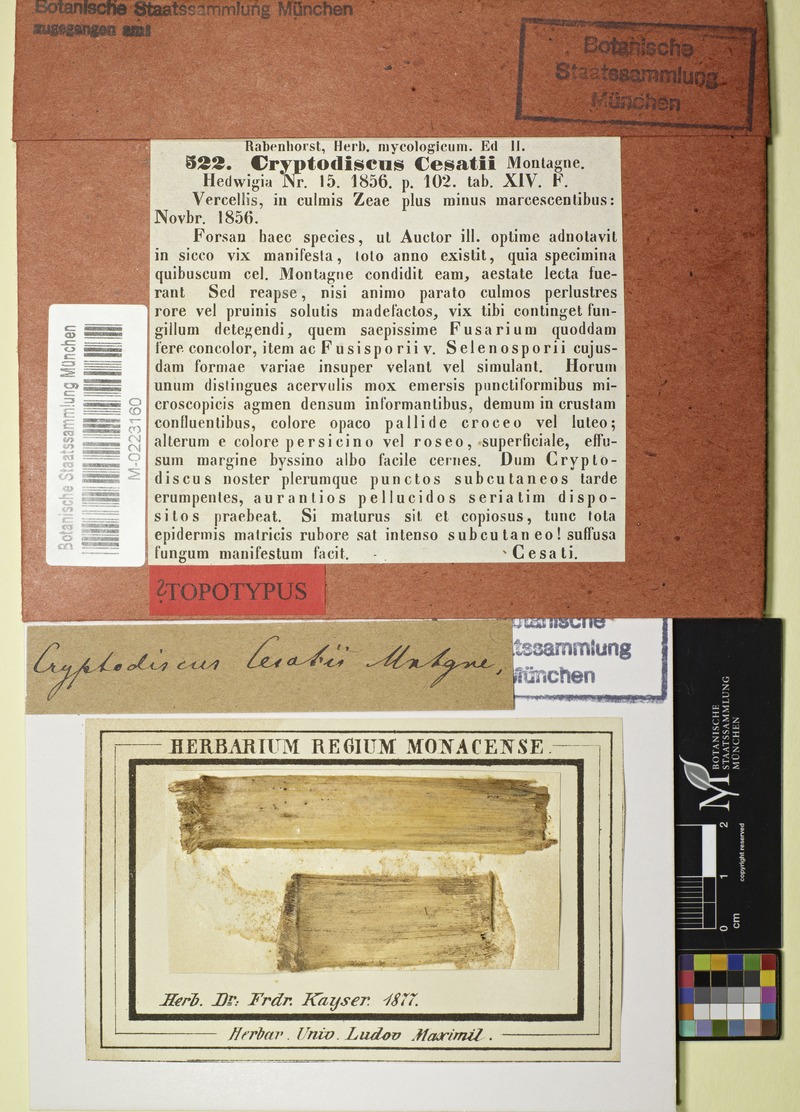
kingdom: Fungi
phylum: Ascomycota
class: Lecanoromycetes
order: Ostropales
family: Stictidaceae
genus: Cryptodiscus
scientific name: Cryptodiscus cesatii
